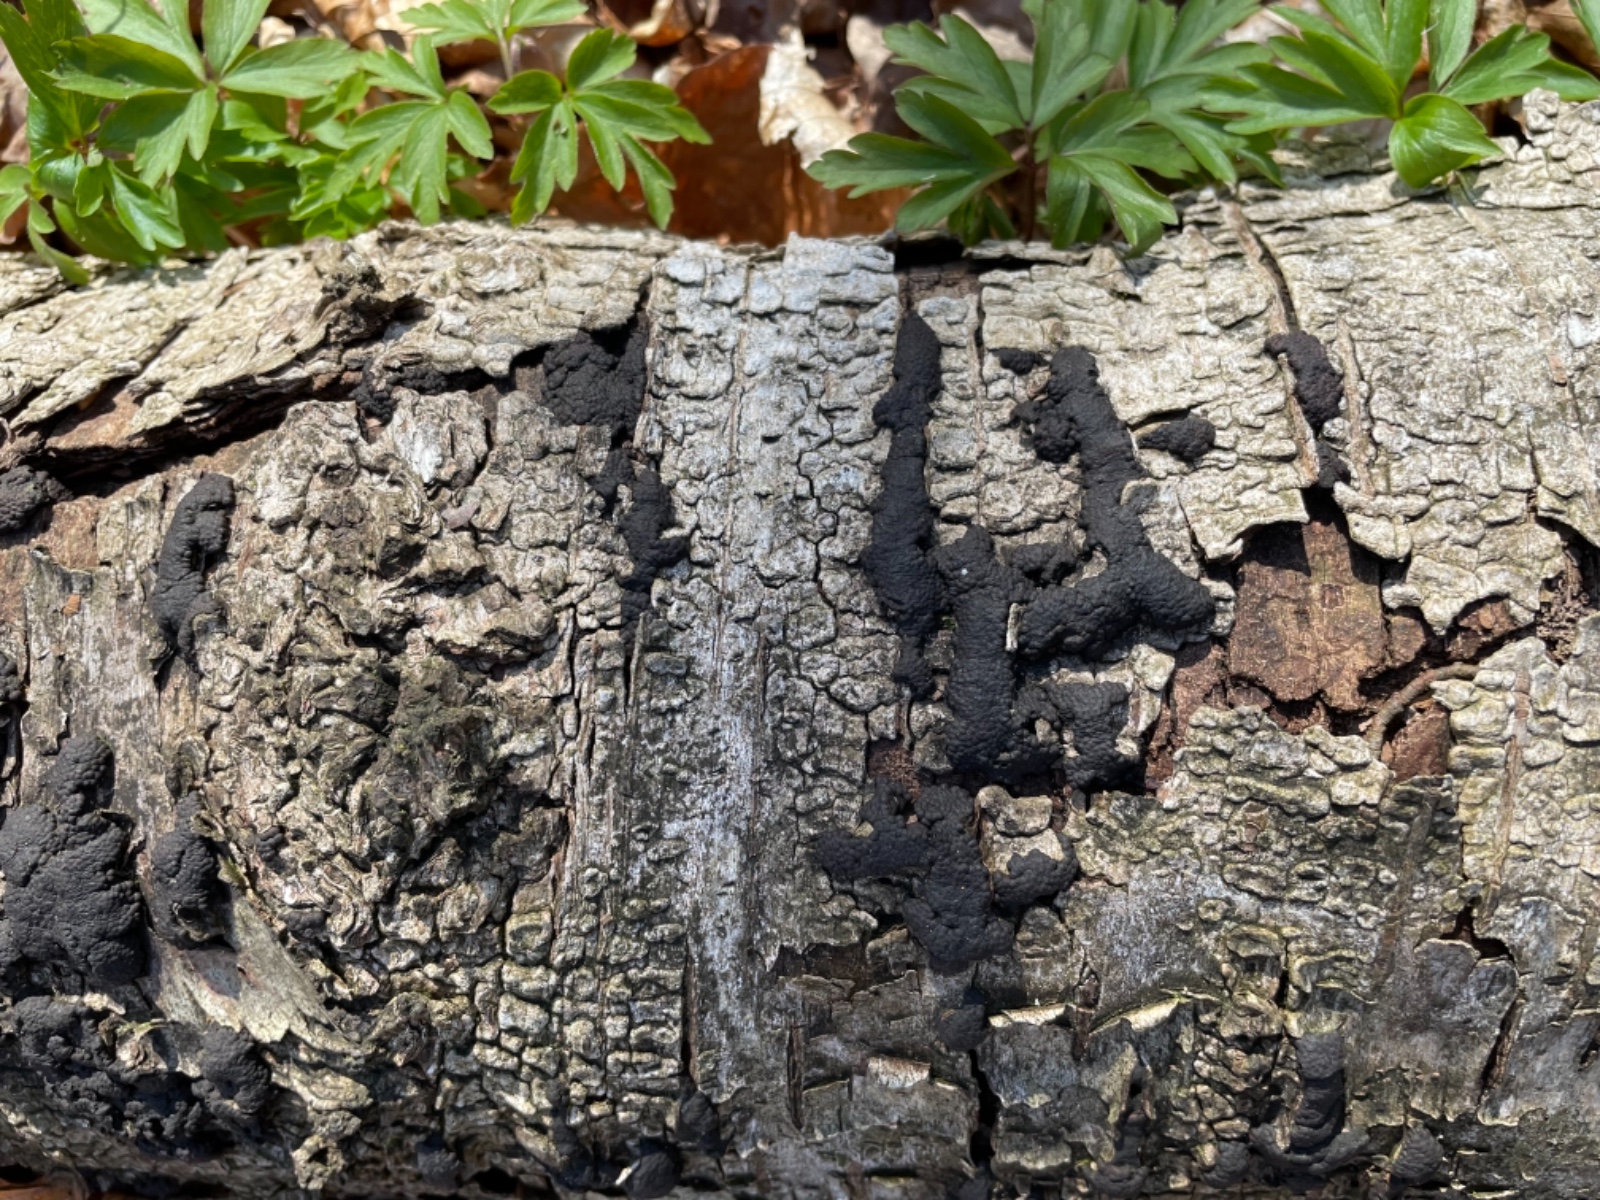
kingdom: Fungi
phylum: Ascomycota
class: Sordariomycetes
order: Xylariales
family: Hypoxylaceae
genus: Jackrogersella
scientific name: Jackrogersella multiformis
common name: foranderlig kulbær
